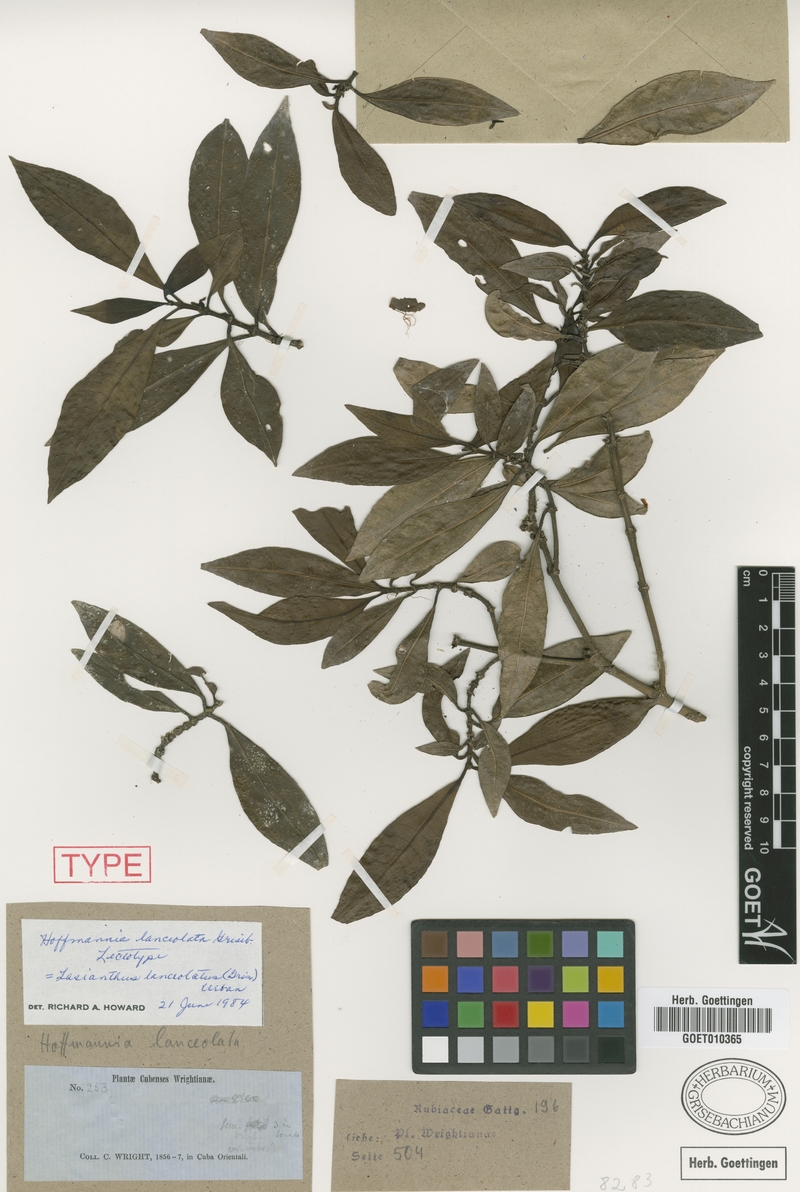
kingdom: Plantae
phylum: Tracheophyta
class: Magnoliopsida
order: Gentianales
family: Rubiaceae
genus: Lasianthus
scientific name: Lasianthus lanceolatus
